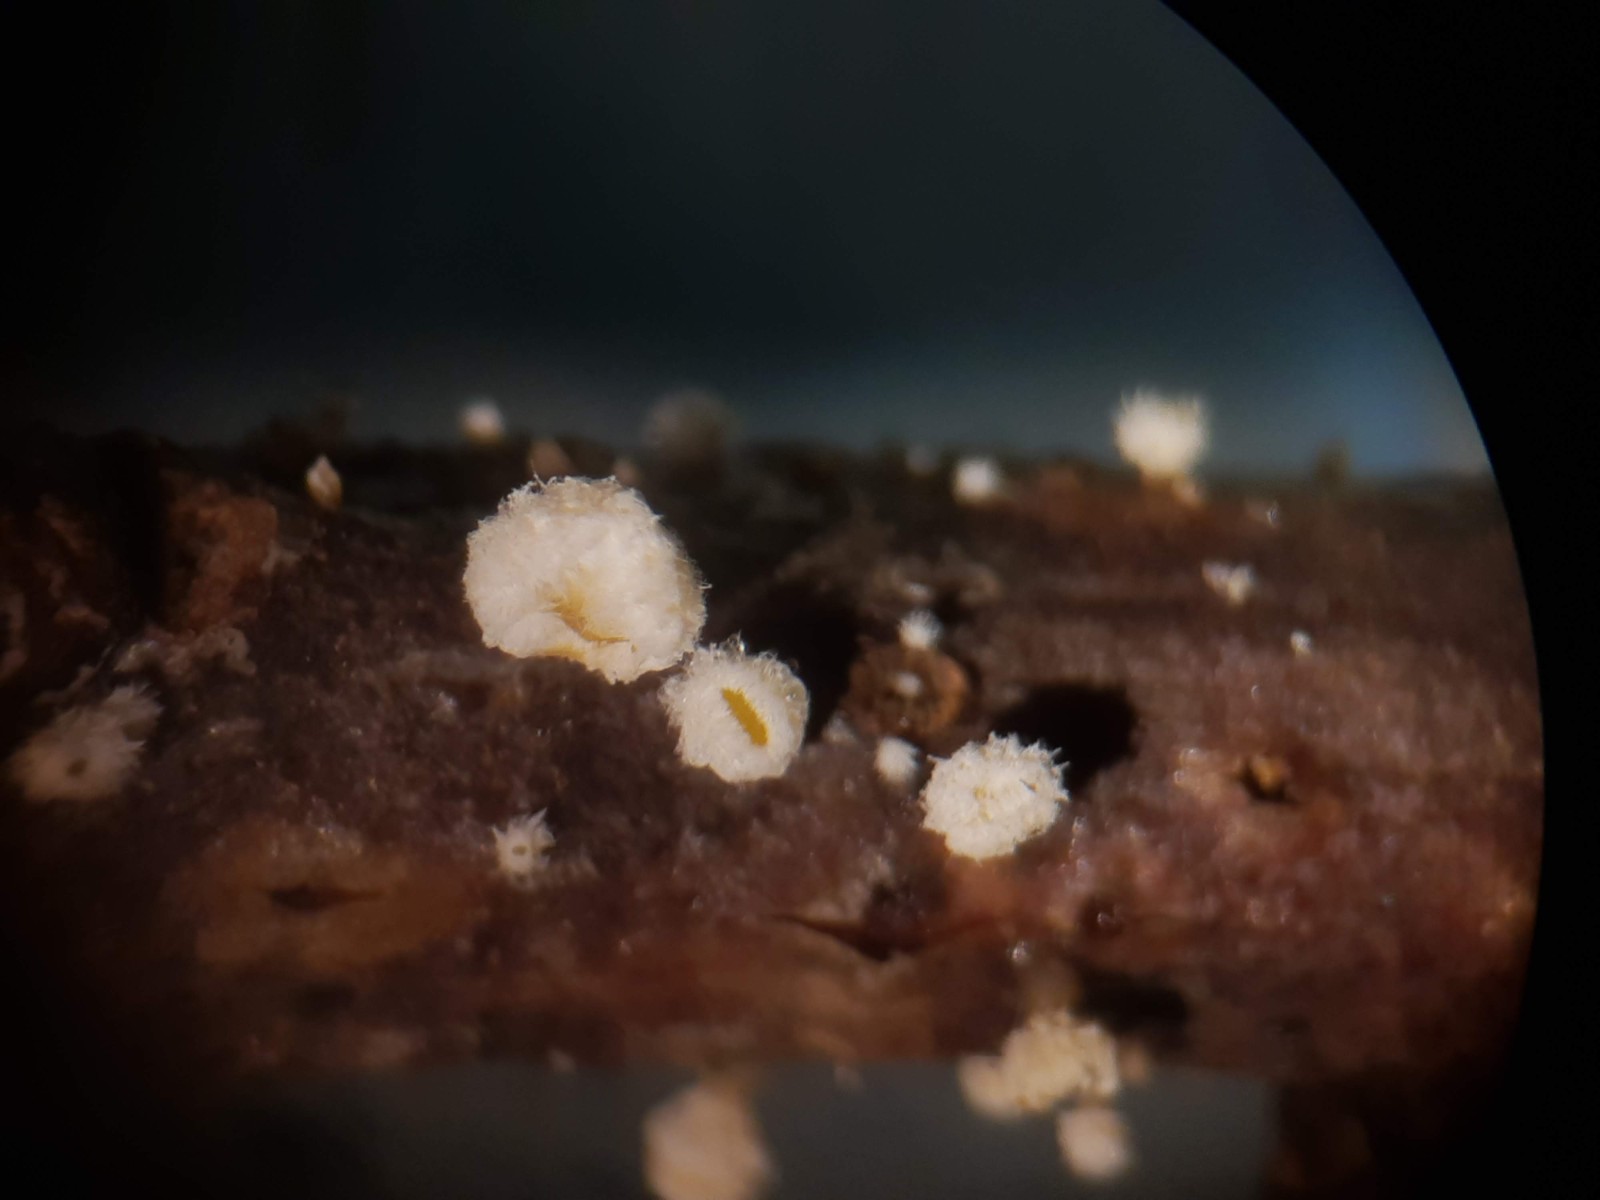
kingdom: Fungi
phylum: Ascomycota
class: Leotiomycetes
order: Helotiales
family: Lachnaceae
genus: Capitotricha
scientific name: Capitotricha bicolor
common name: prægtig frynseskive
